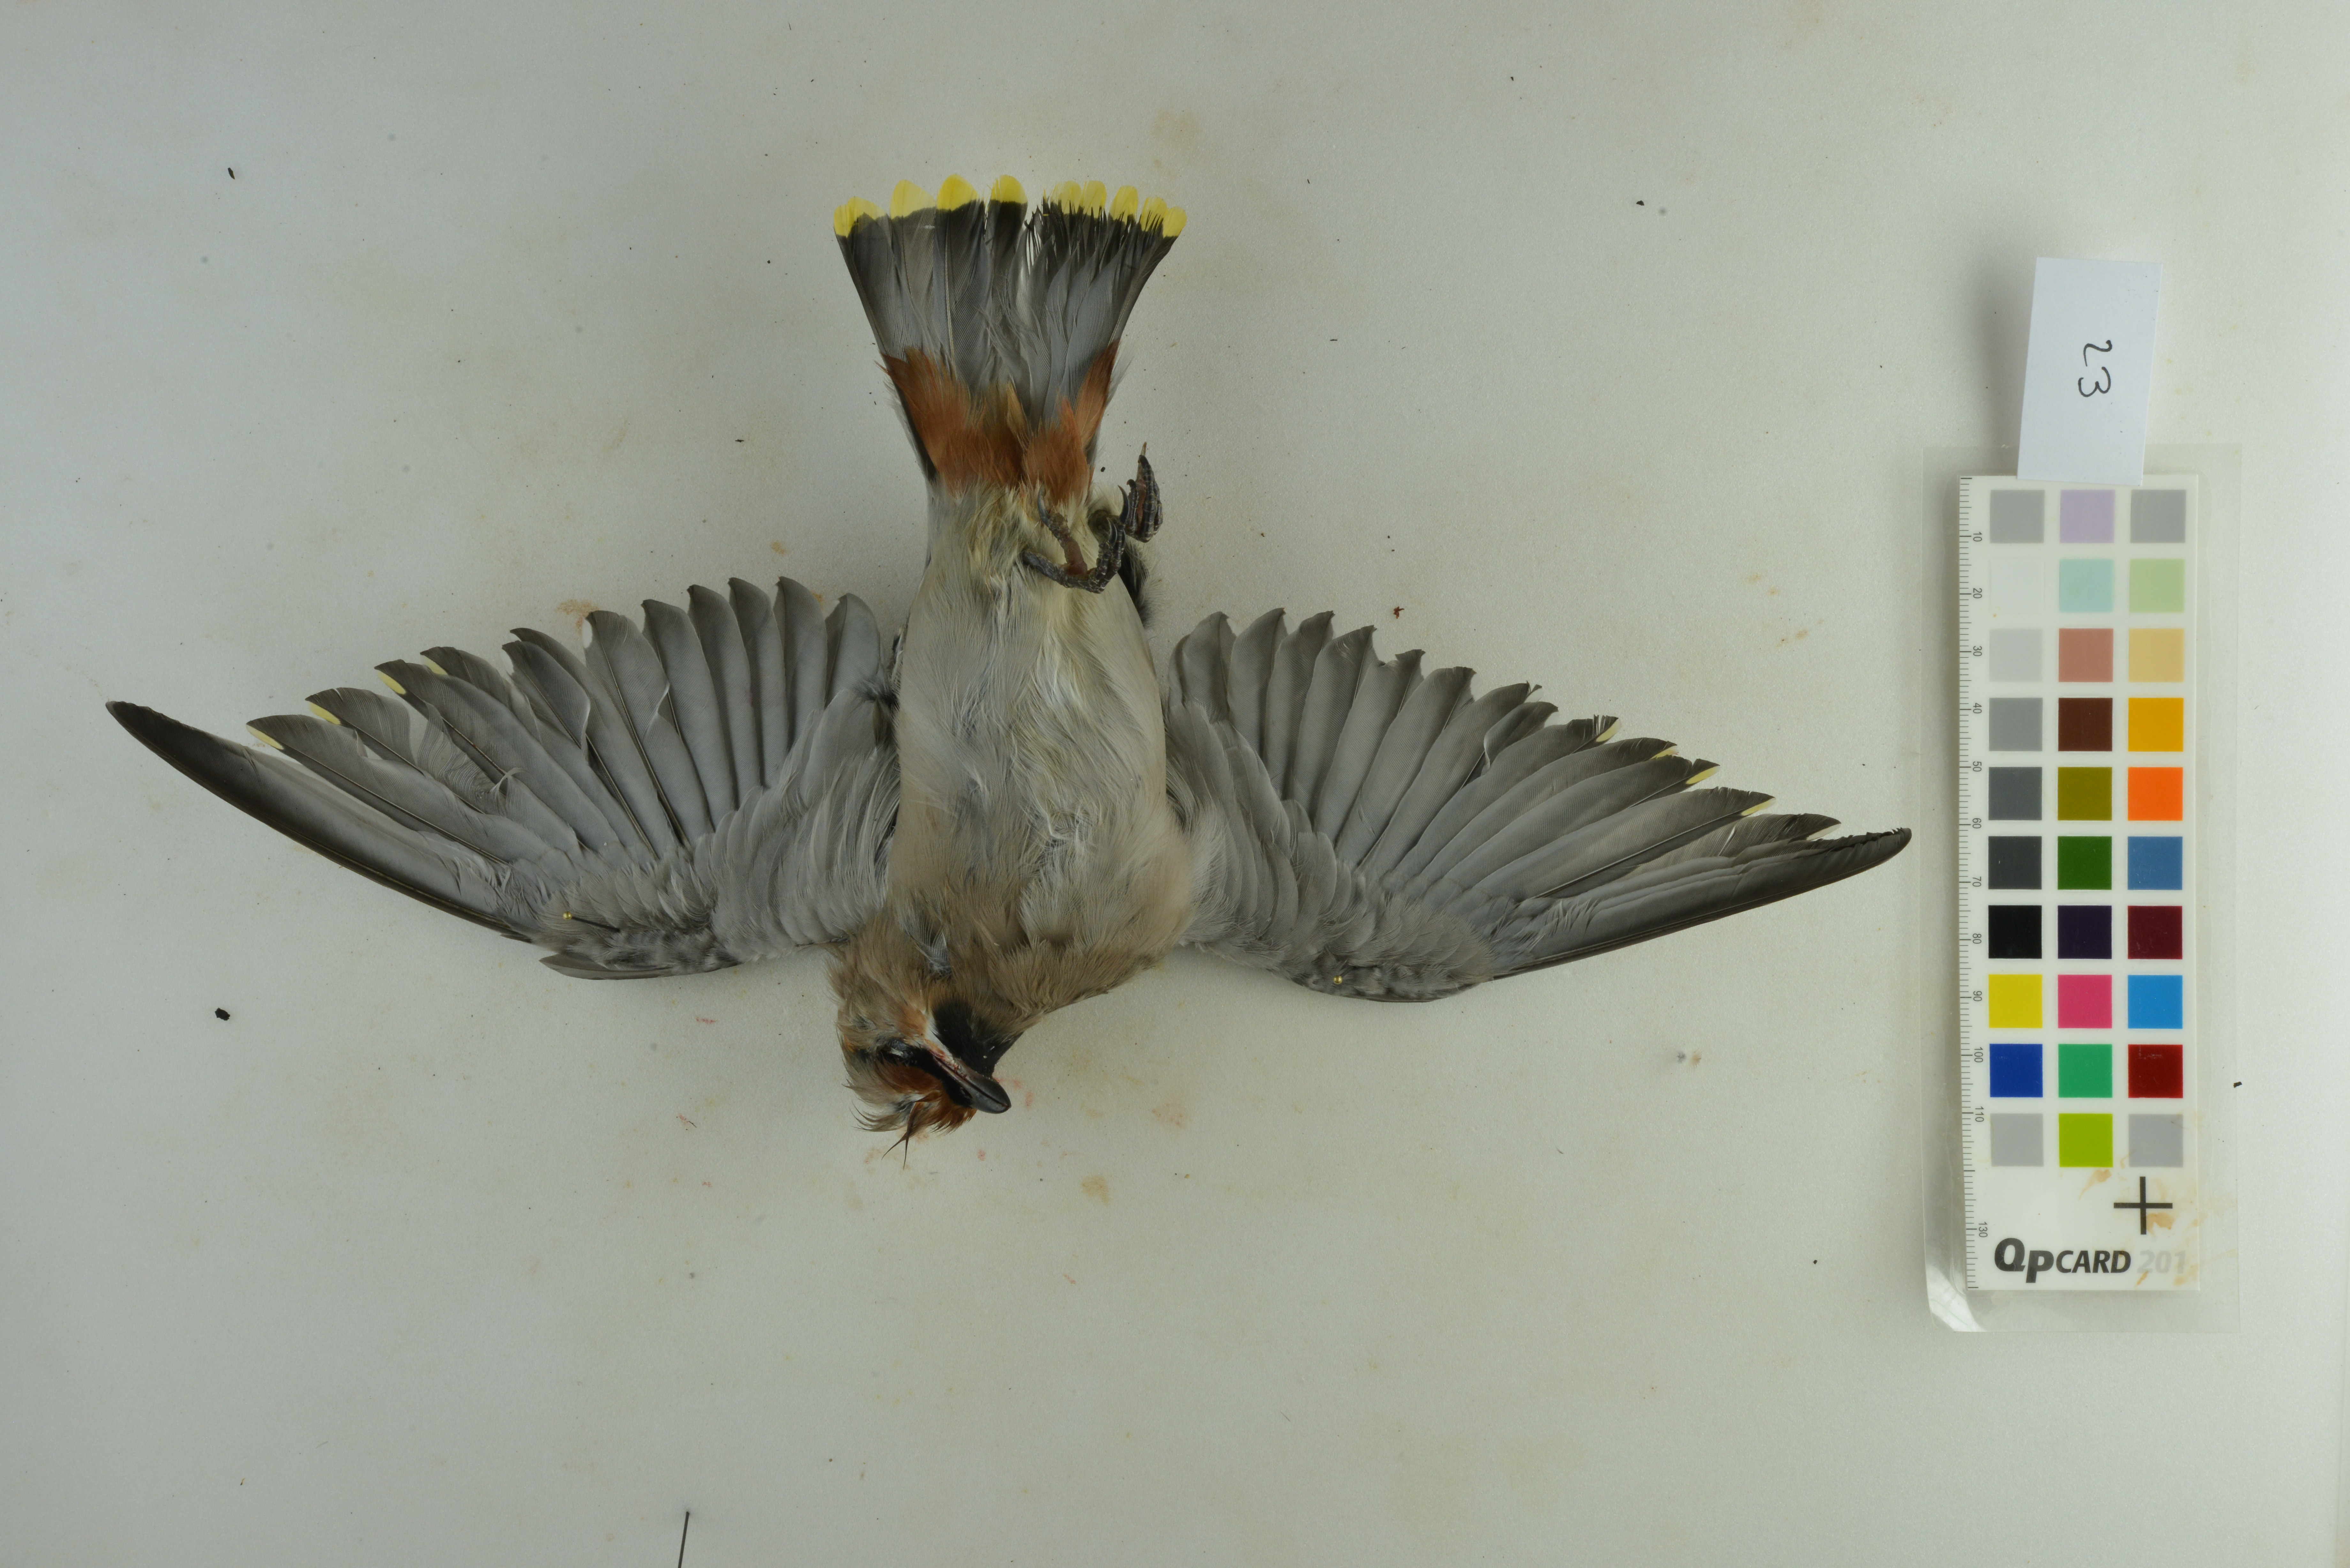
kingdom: Animalia
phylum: Chordata
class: Aves
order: Passeriformes
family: Bombycillidae
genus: Bombycilla
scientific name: Bombycilla garrulus
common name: Bohemian waxwing
